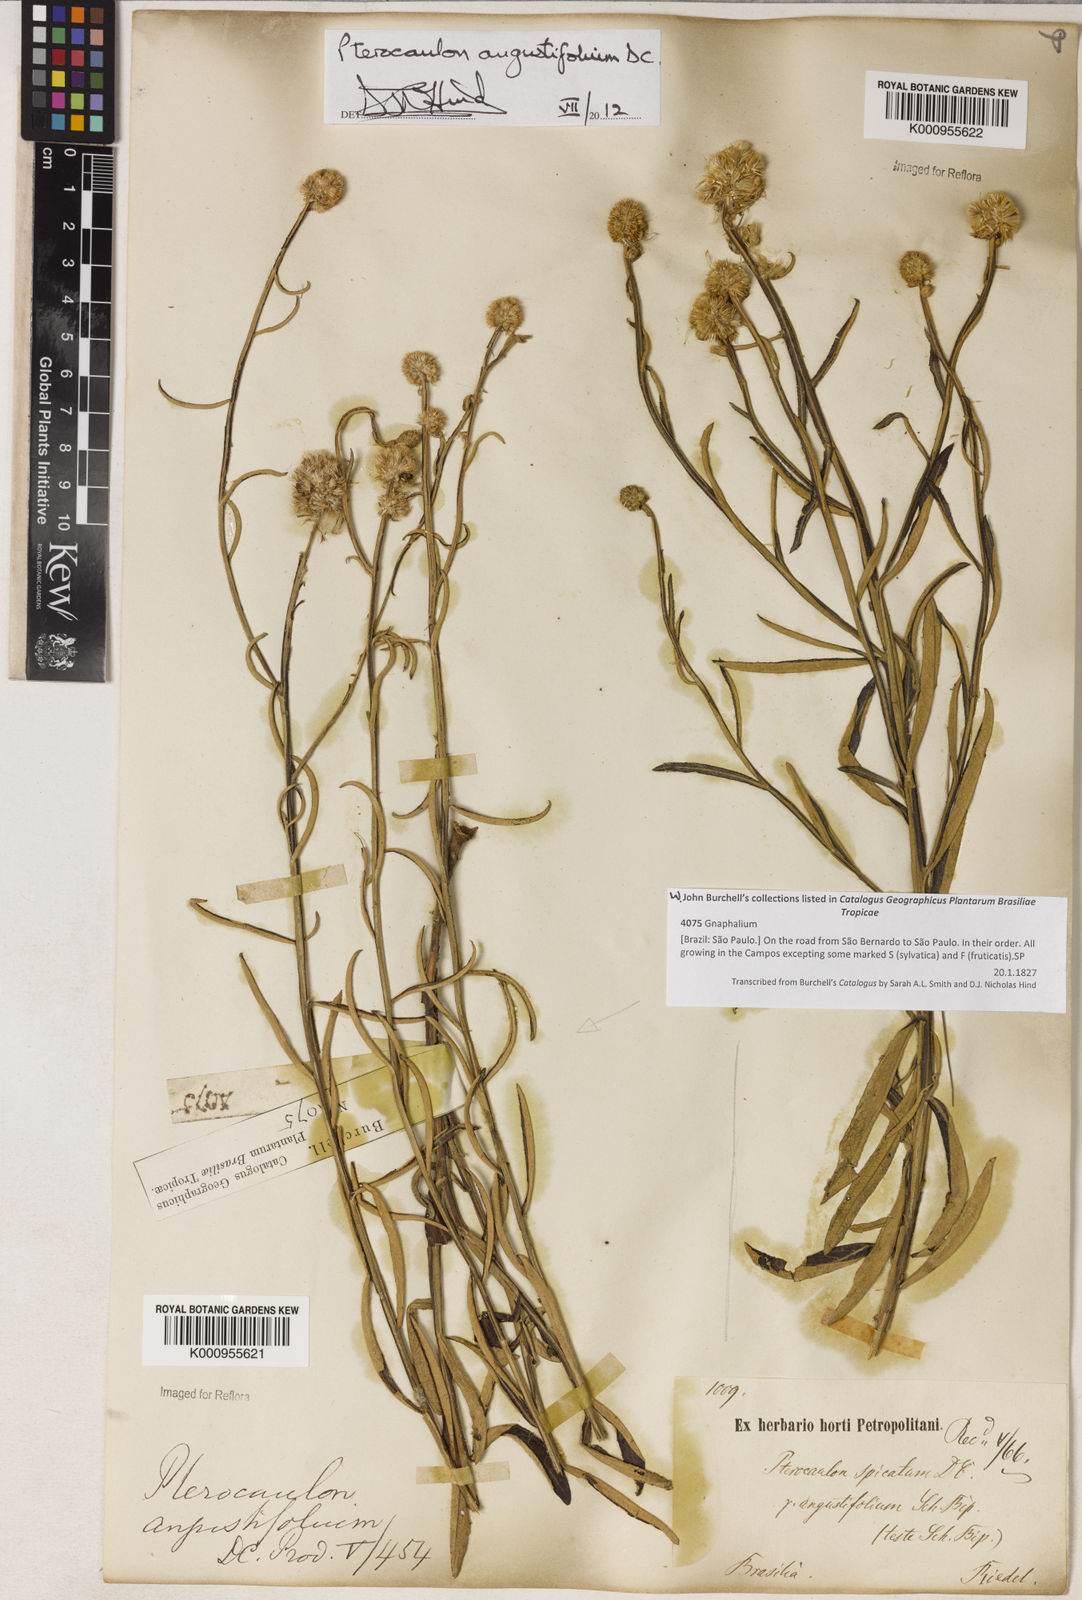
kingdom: Plantae
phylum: Tracheophyta
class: Magnoliopsida
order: Asterales
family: Asteraceae
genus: Pterocaulon
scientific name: Pterocaulon angustifolium
